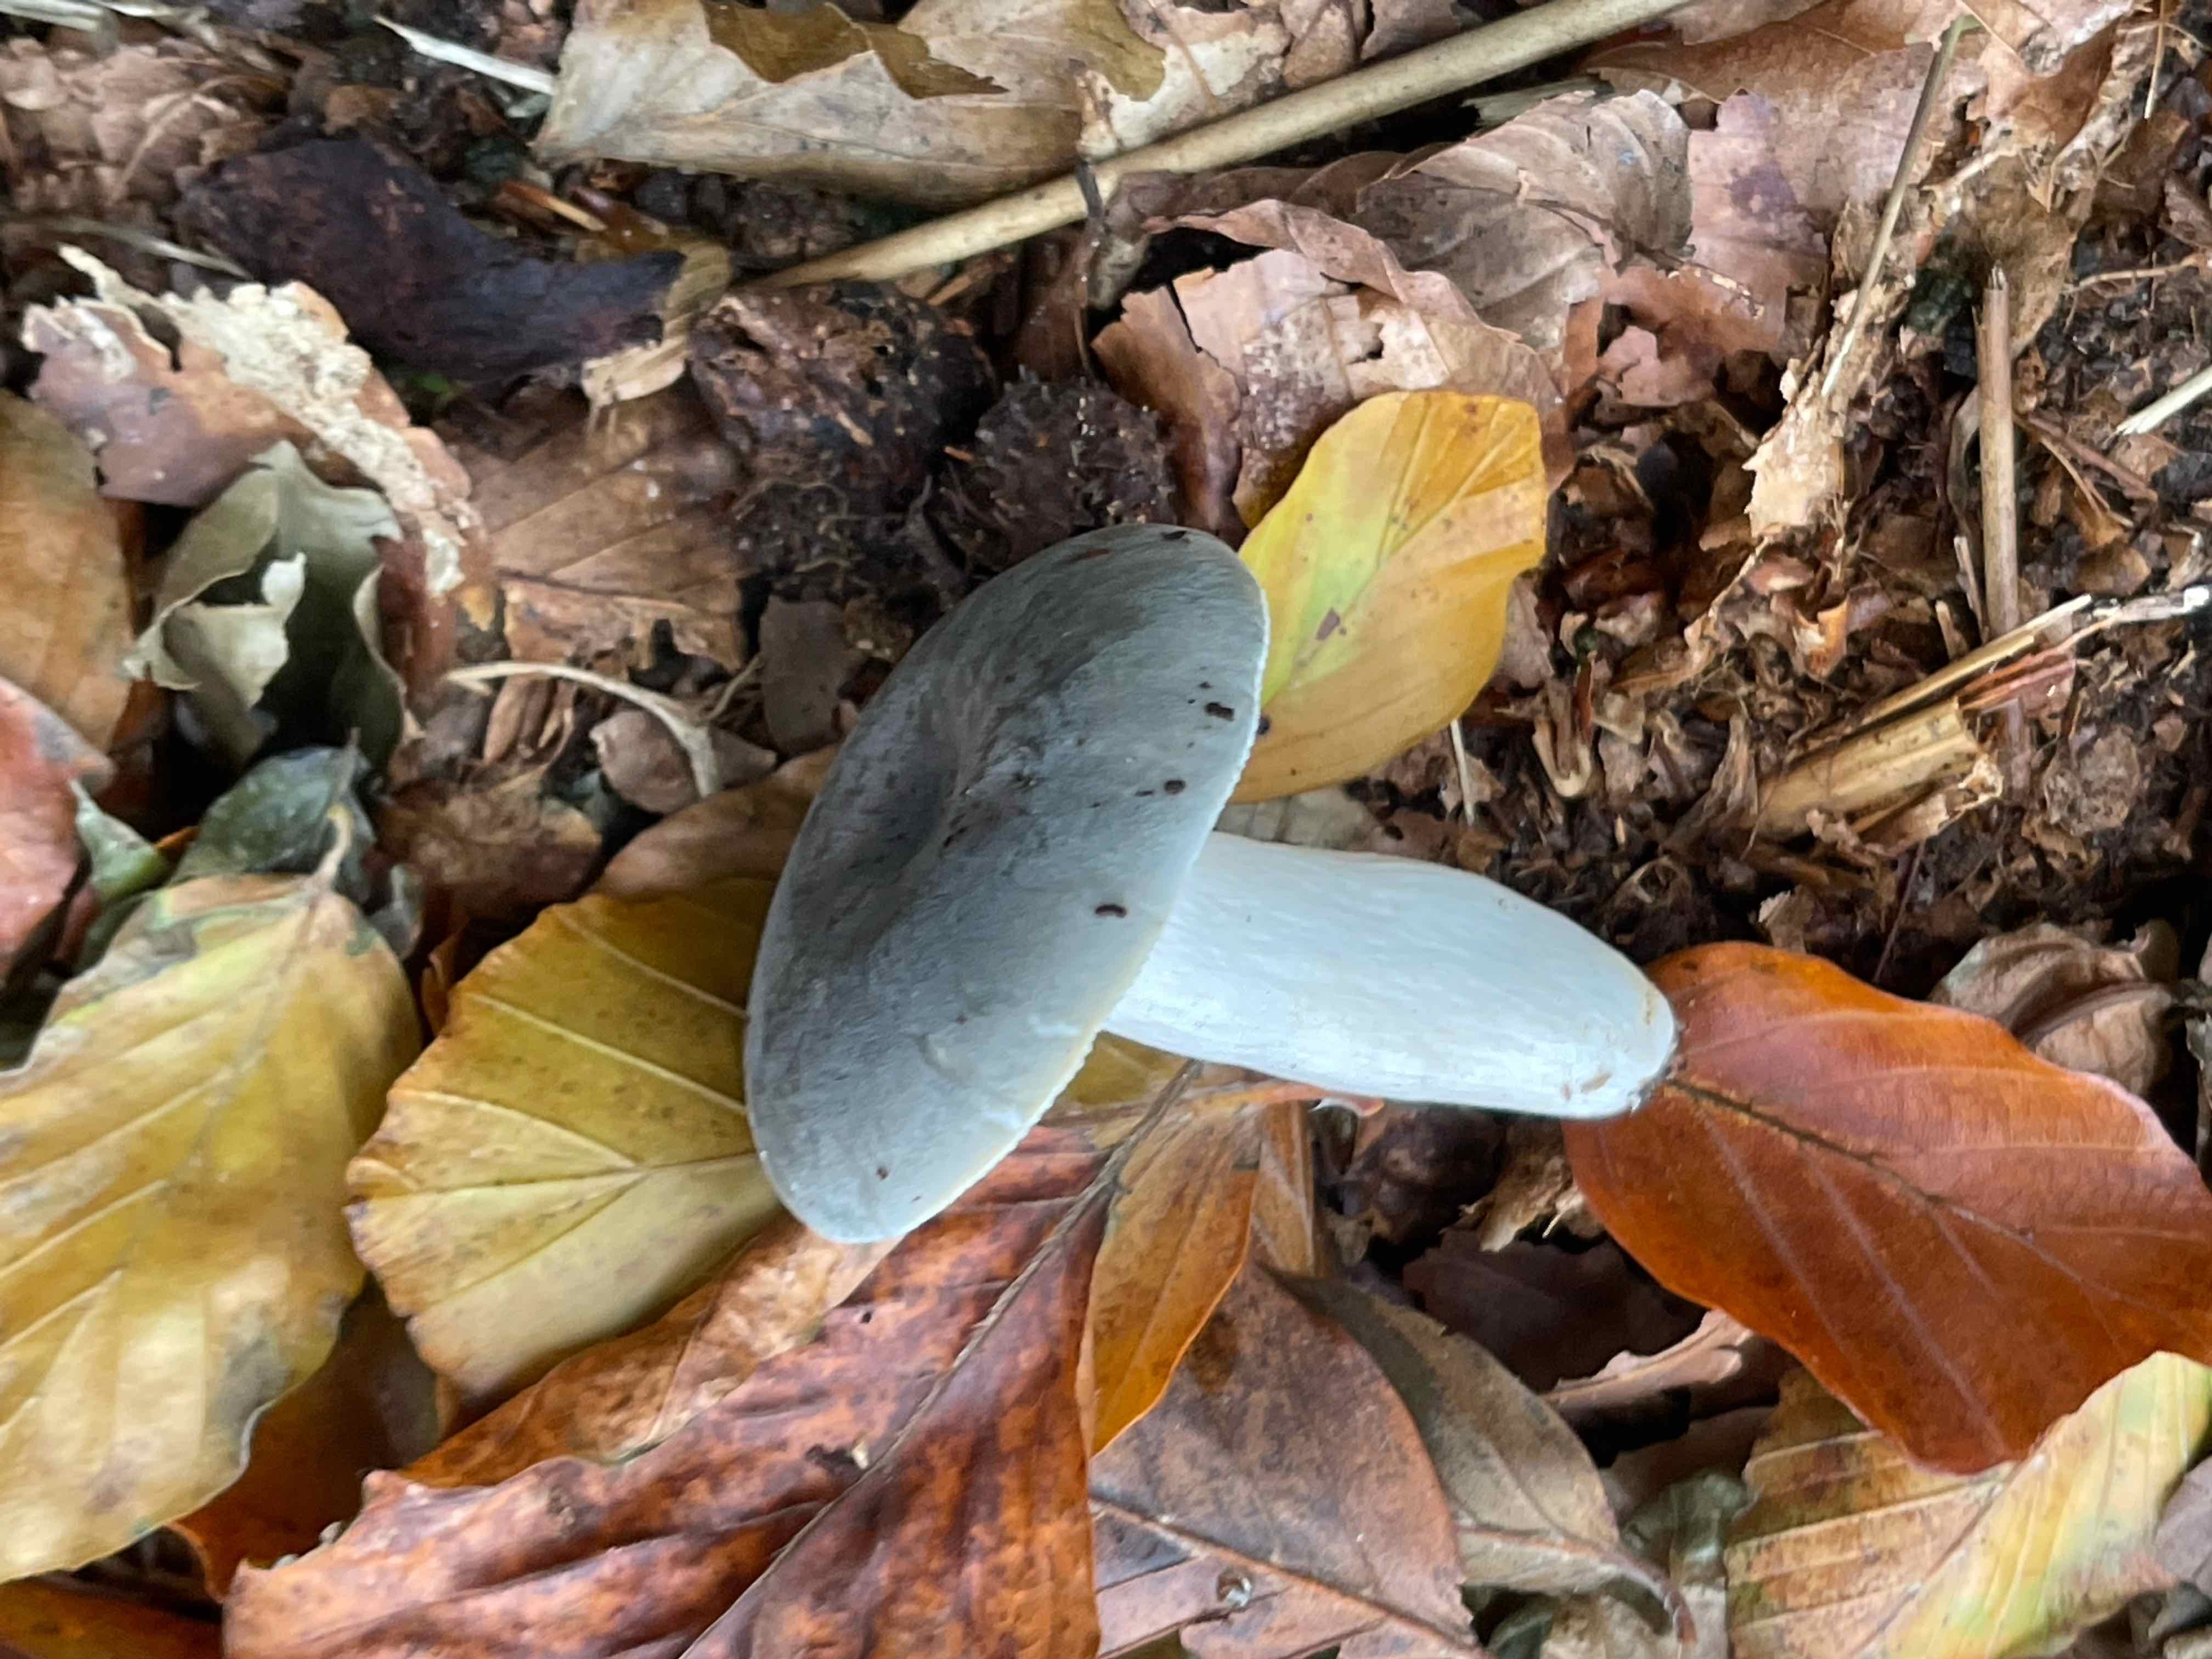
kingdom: Fungi
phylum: Basidiomycota
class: Agaricomycetes
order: Russulales
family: Russulaceae
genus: Russula
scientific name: Russula parazurea
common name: blågrå skørhat
